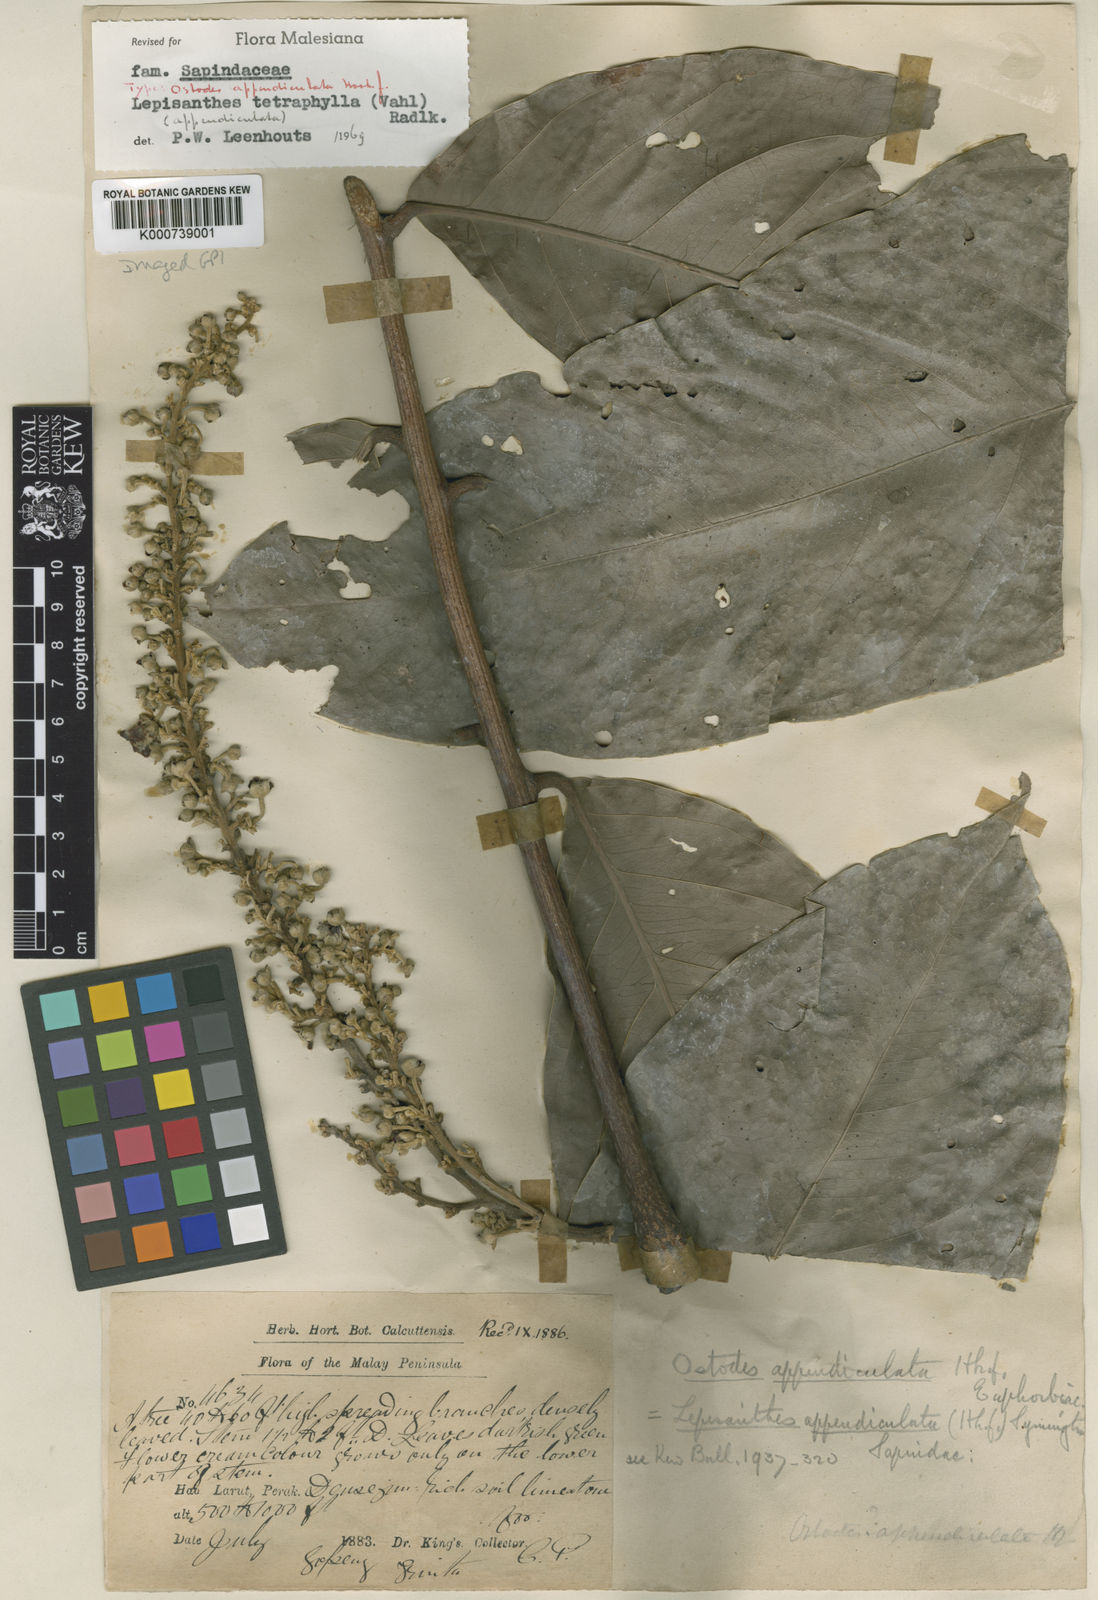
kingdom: Plantae
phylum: Tracheophyta
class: Magnoliopsida
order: Sapindales
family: Sapindaceae
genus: Lepisanthes
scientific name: Lepisanthes tetraphylla
